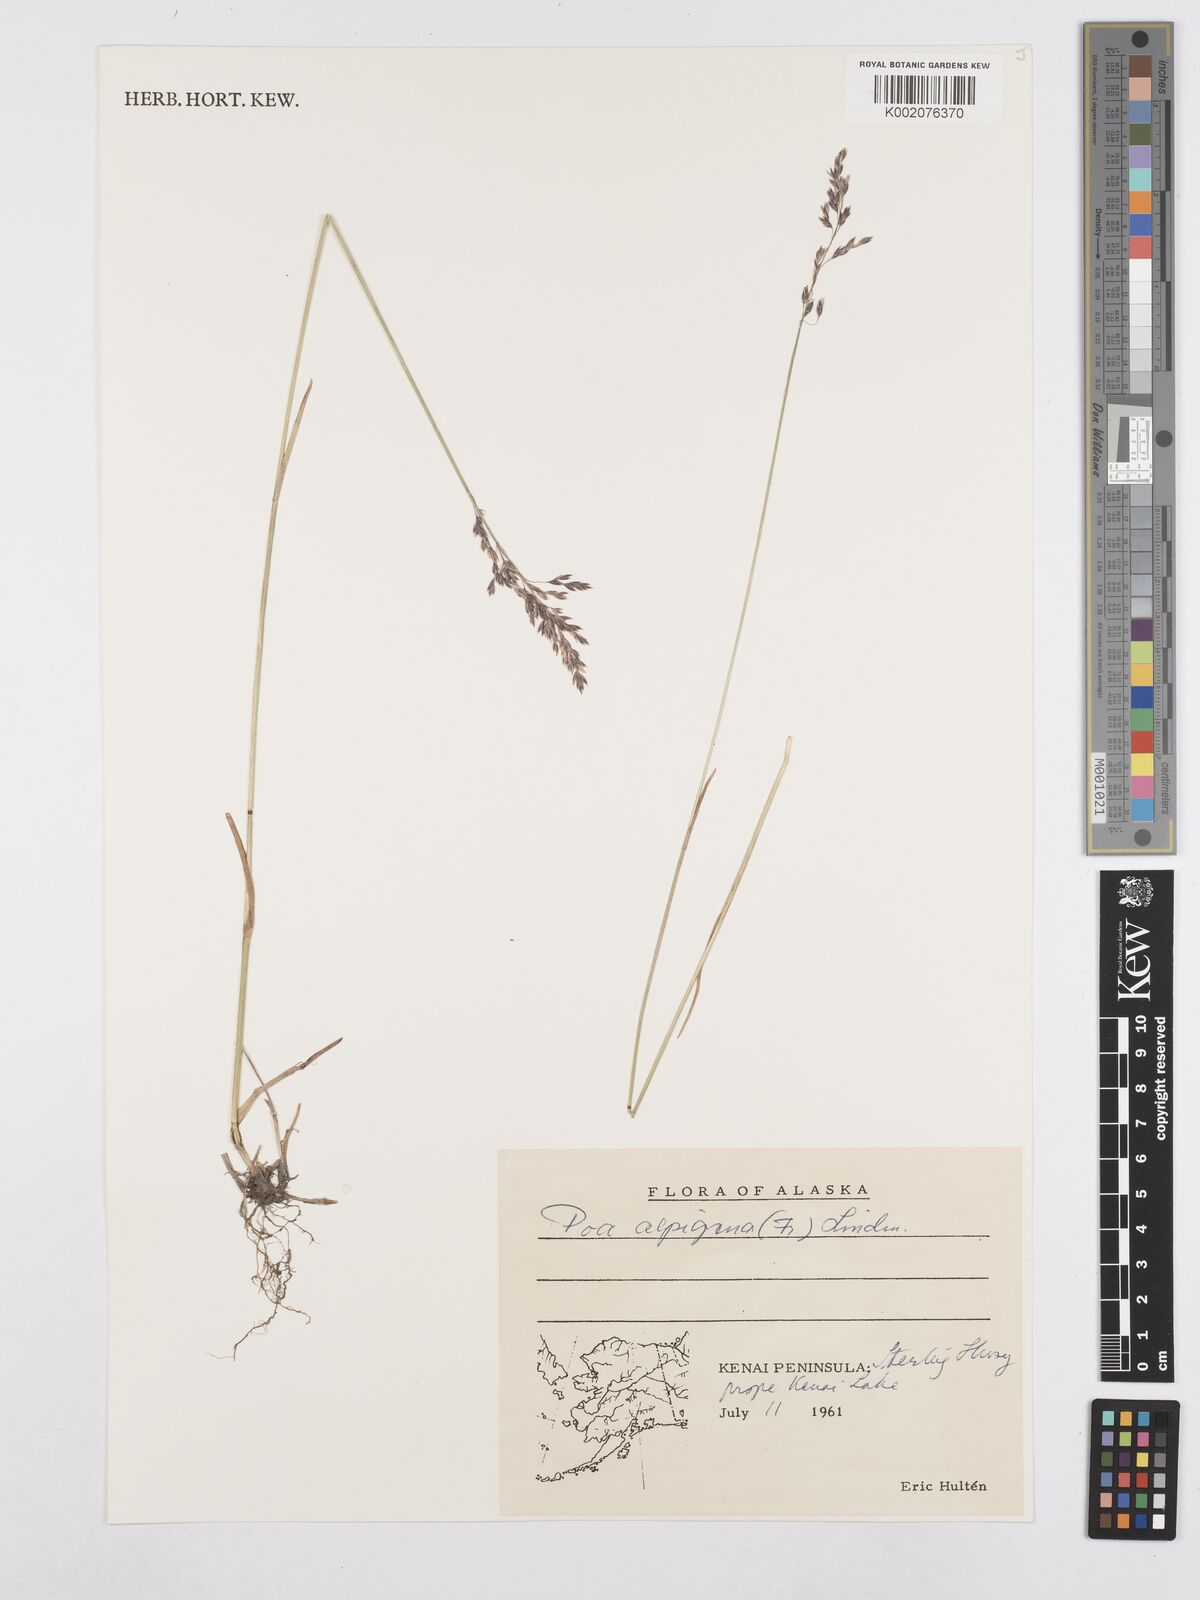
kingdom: Plantae
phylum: Tracheophyta
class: Liliopsida
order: Poales
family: Poaceae
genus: Poa
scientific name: Poa alpigena
